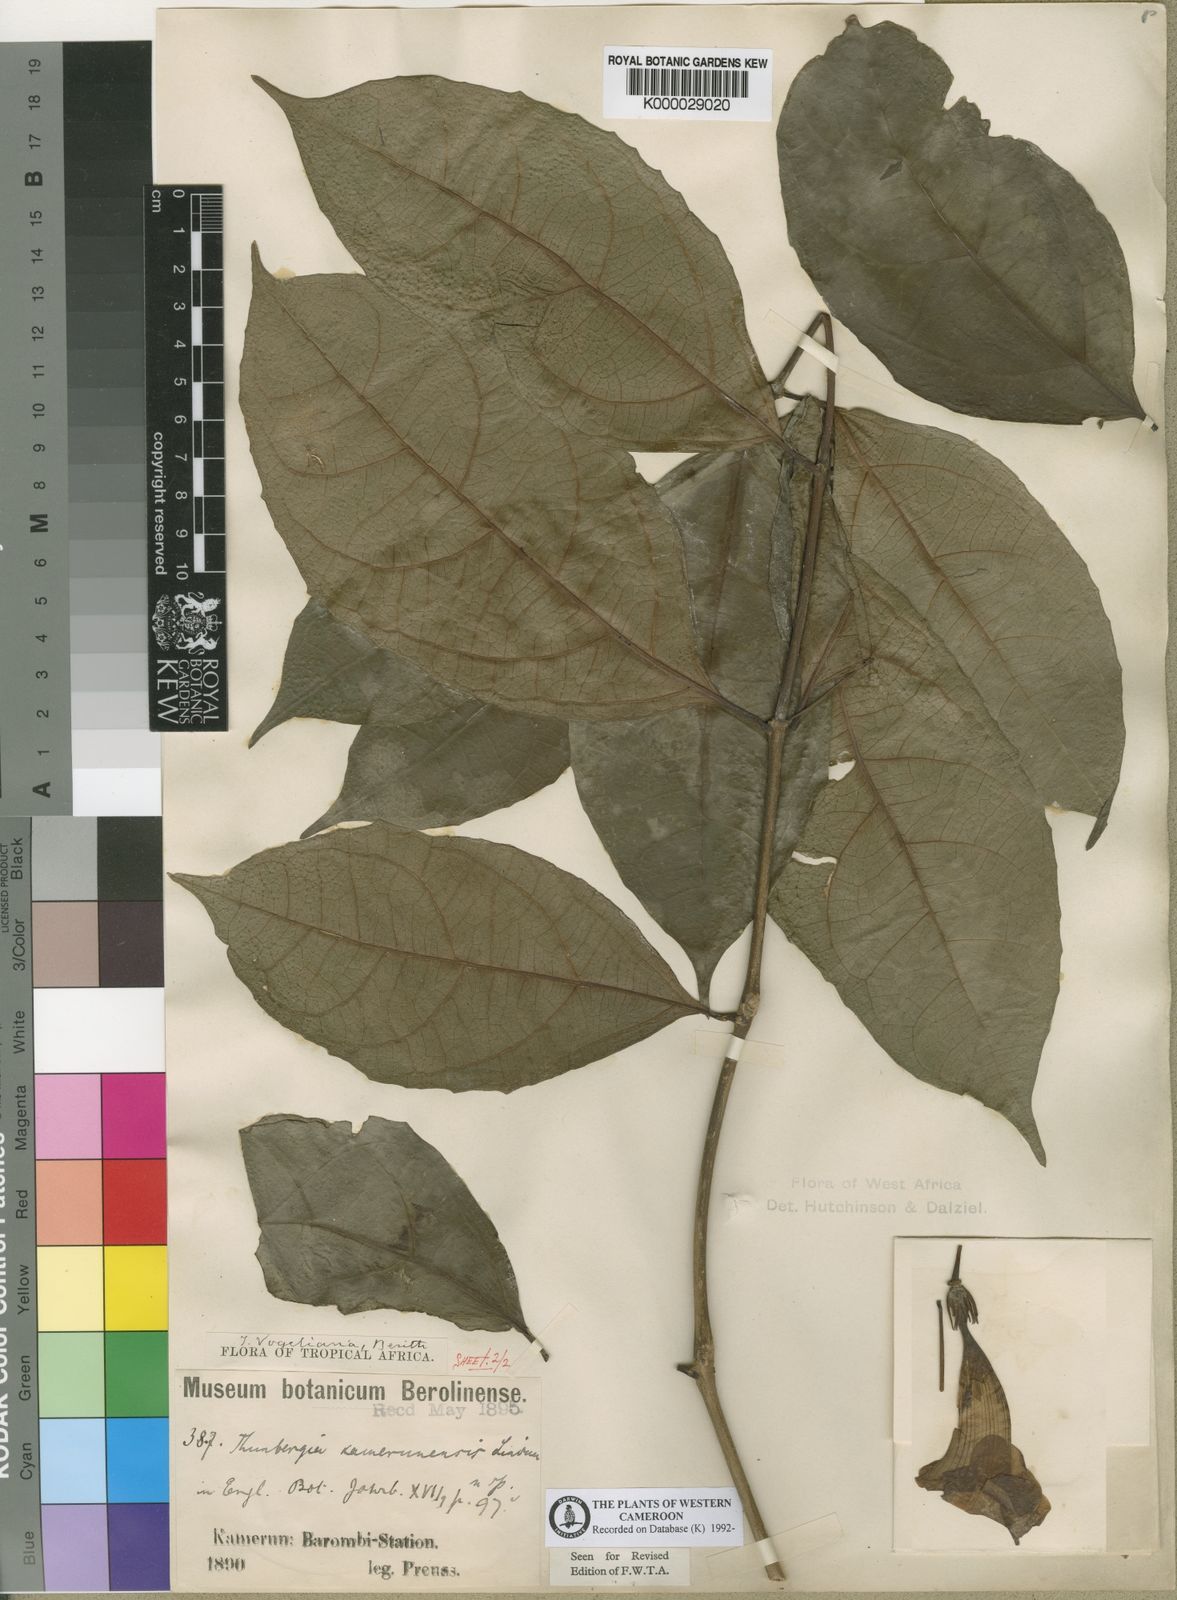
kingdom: Plantae
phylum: Tracheophyta
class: Magnoliopsida
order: Lamiales
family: Acanthaceae
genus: Thunbergia
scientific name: Thunbergia vogeliana
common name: Acanthaceae
